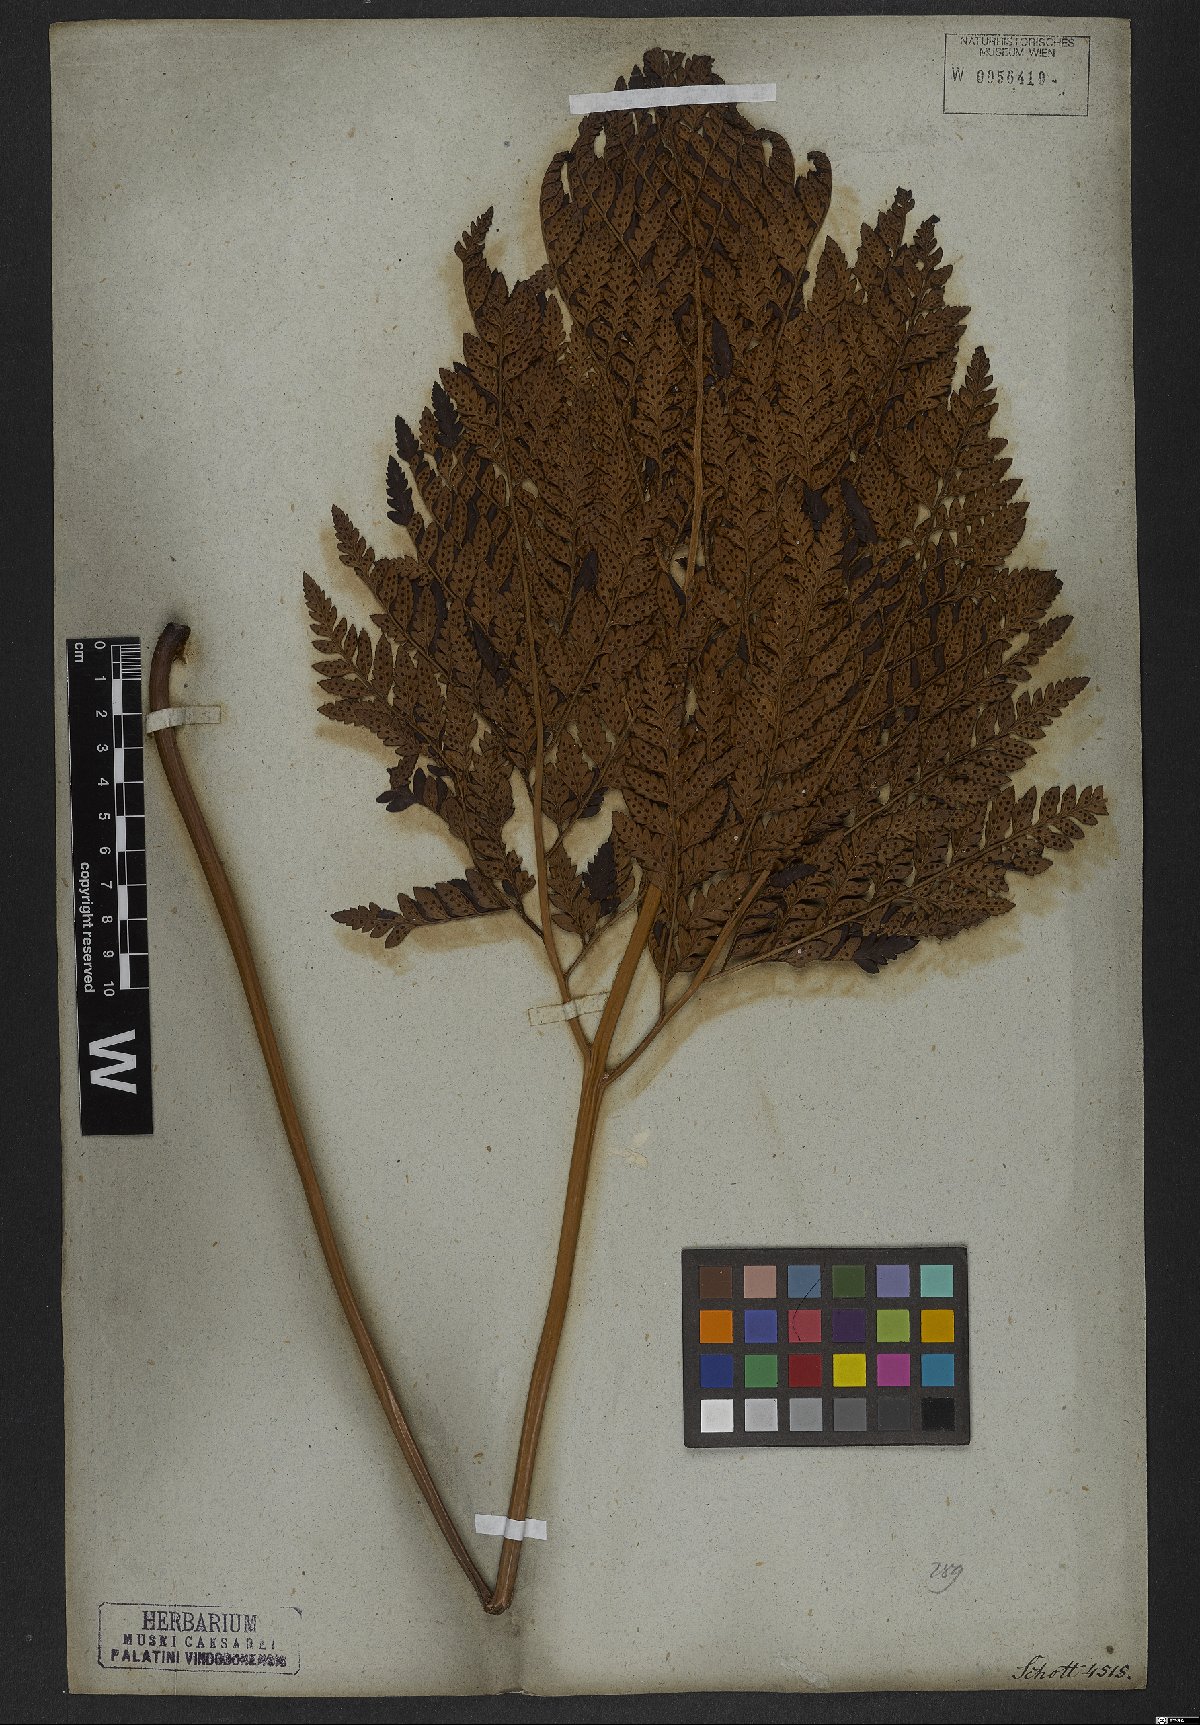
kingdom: Plantae
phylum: Tracheophyta
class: Polypodiopsida
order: Polypodiales
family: Dryopteridaceae
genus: Rumohra
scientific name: Rumohra adiantiformis
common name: Leather fern
